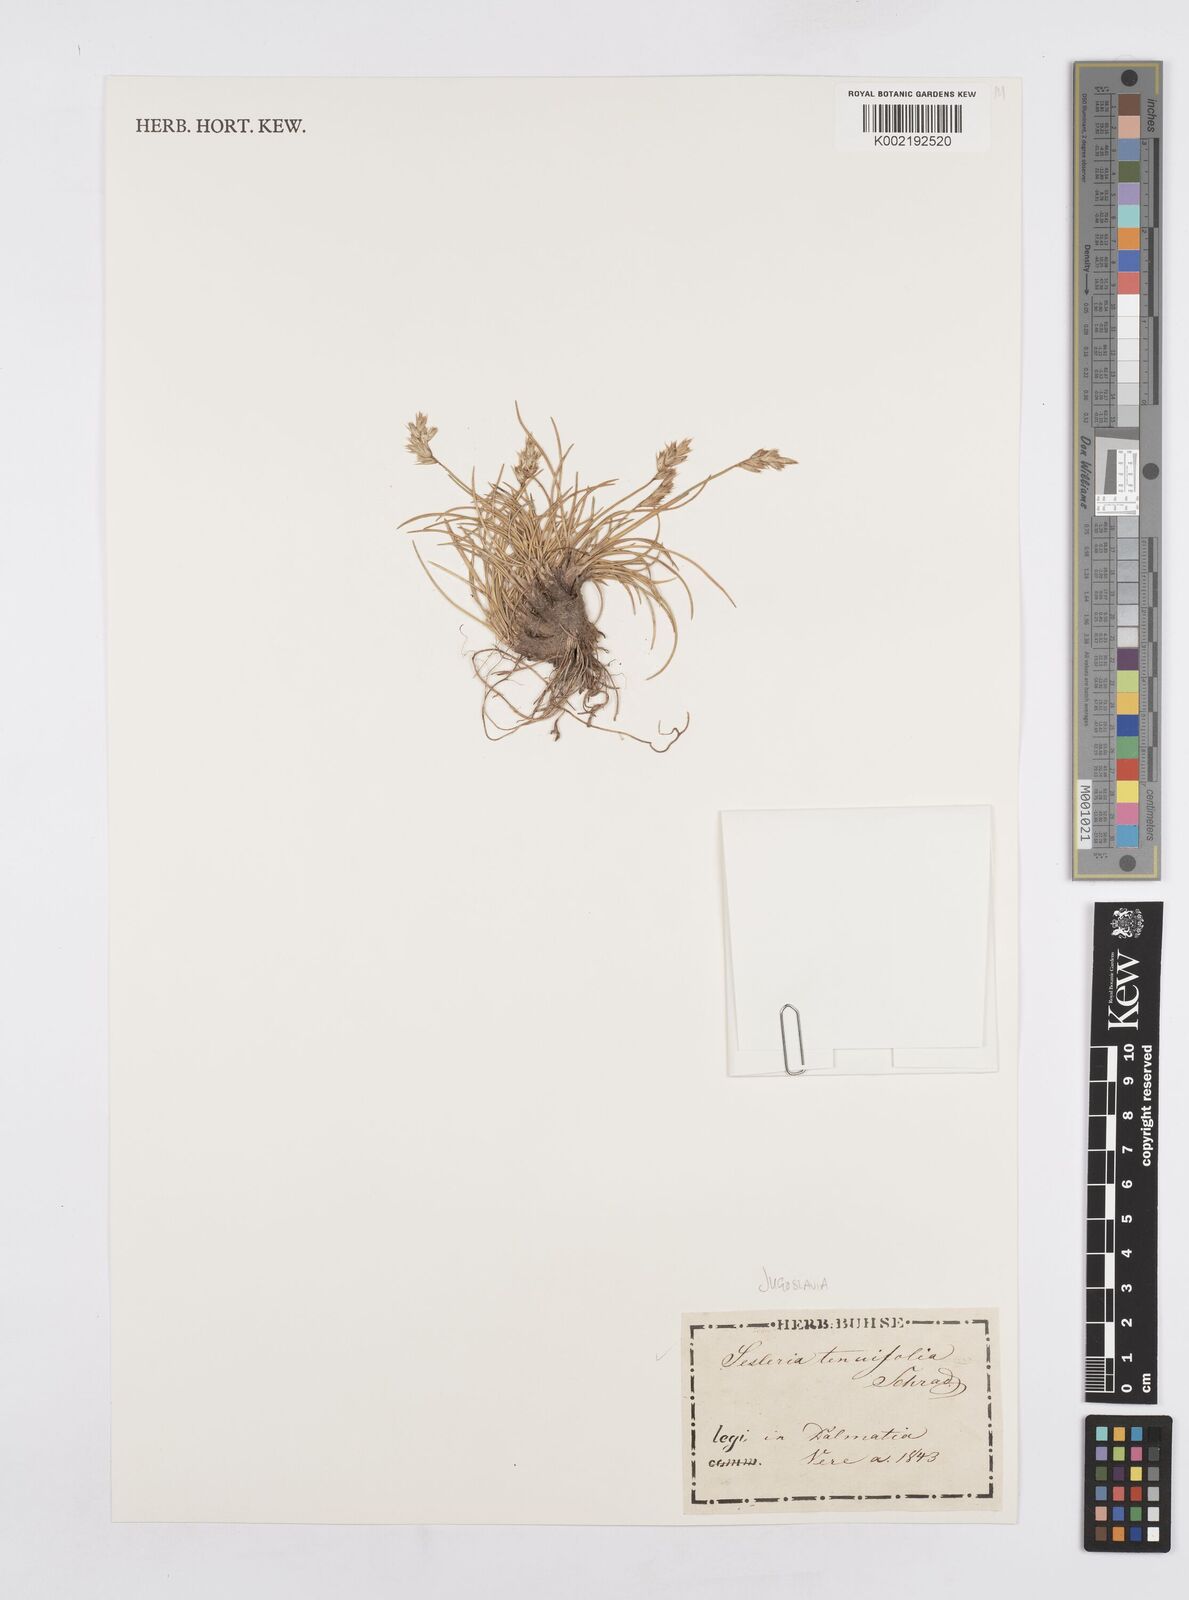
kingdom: Plantae
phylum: Tracheophyta
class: Liliopsida
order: Poales
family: Poaceae
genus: Sesleria
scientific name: Sesleria juncifolia
